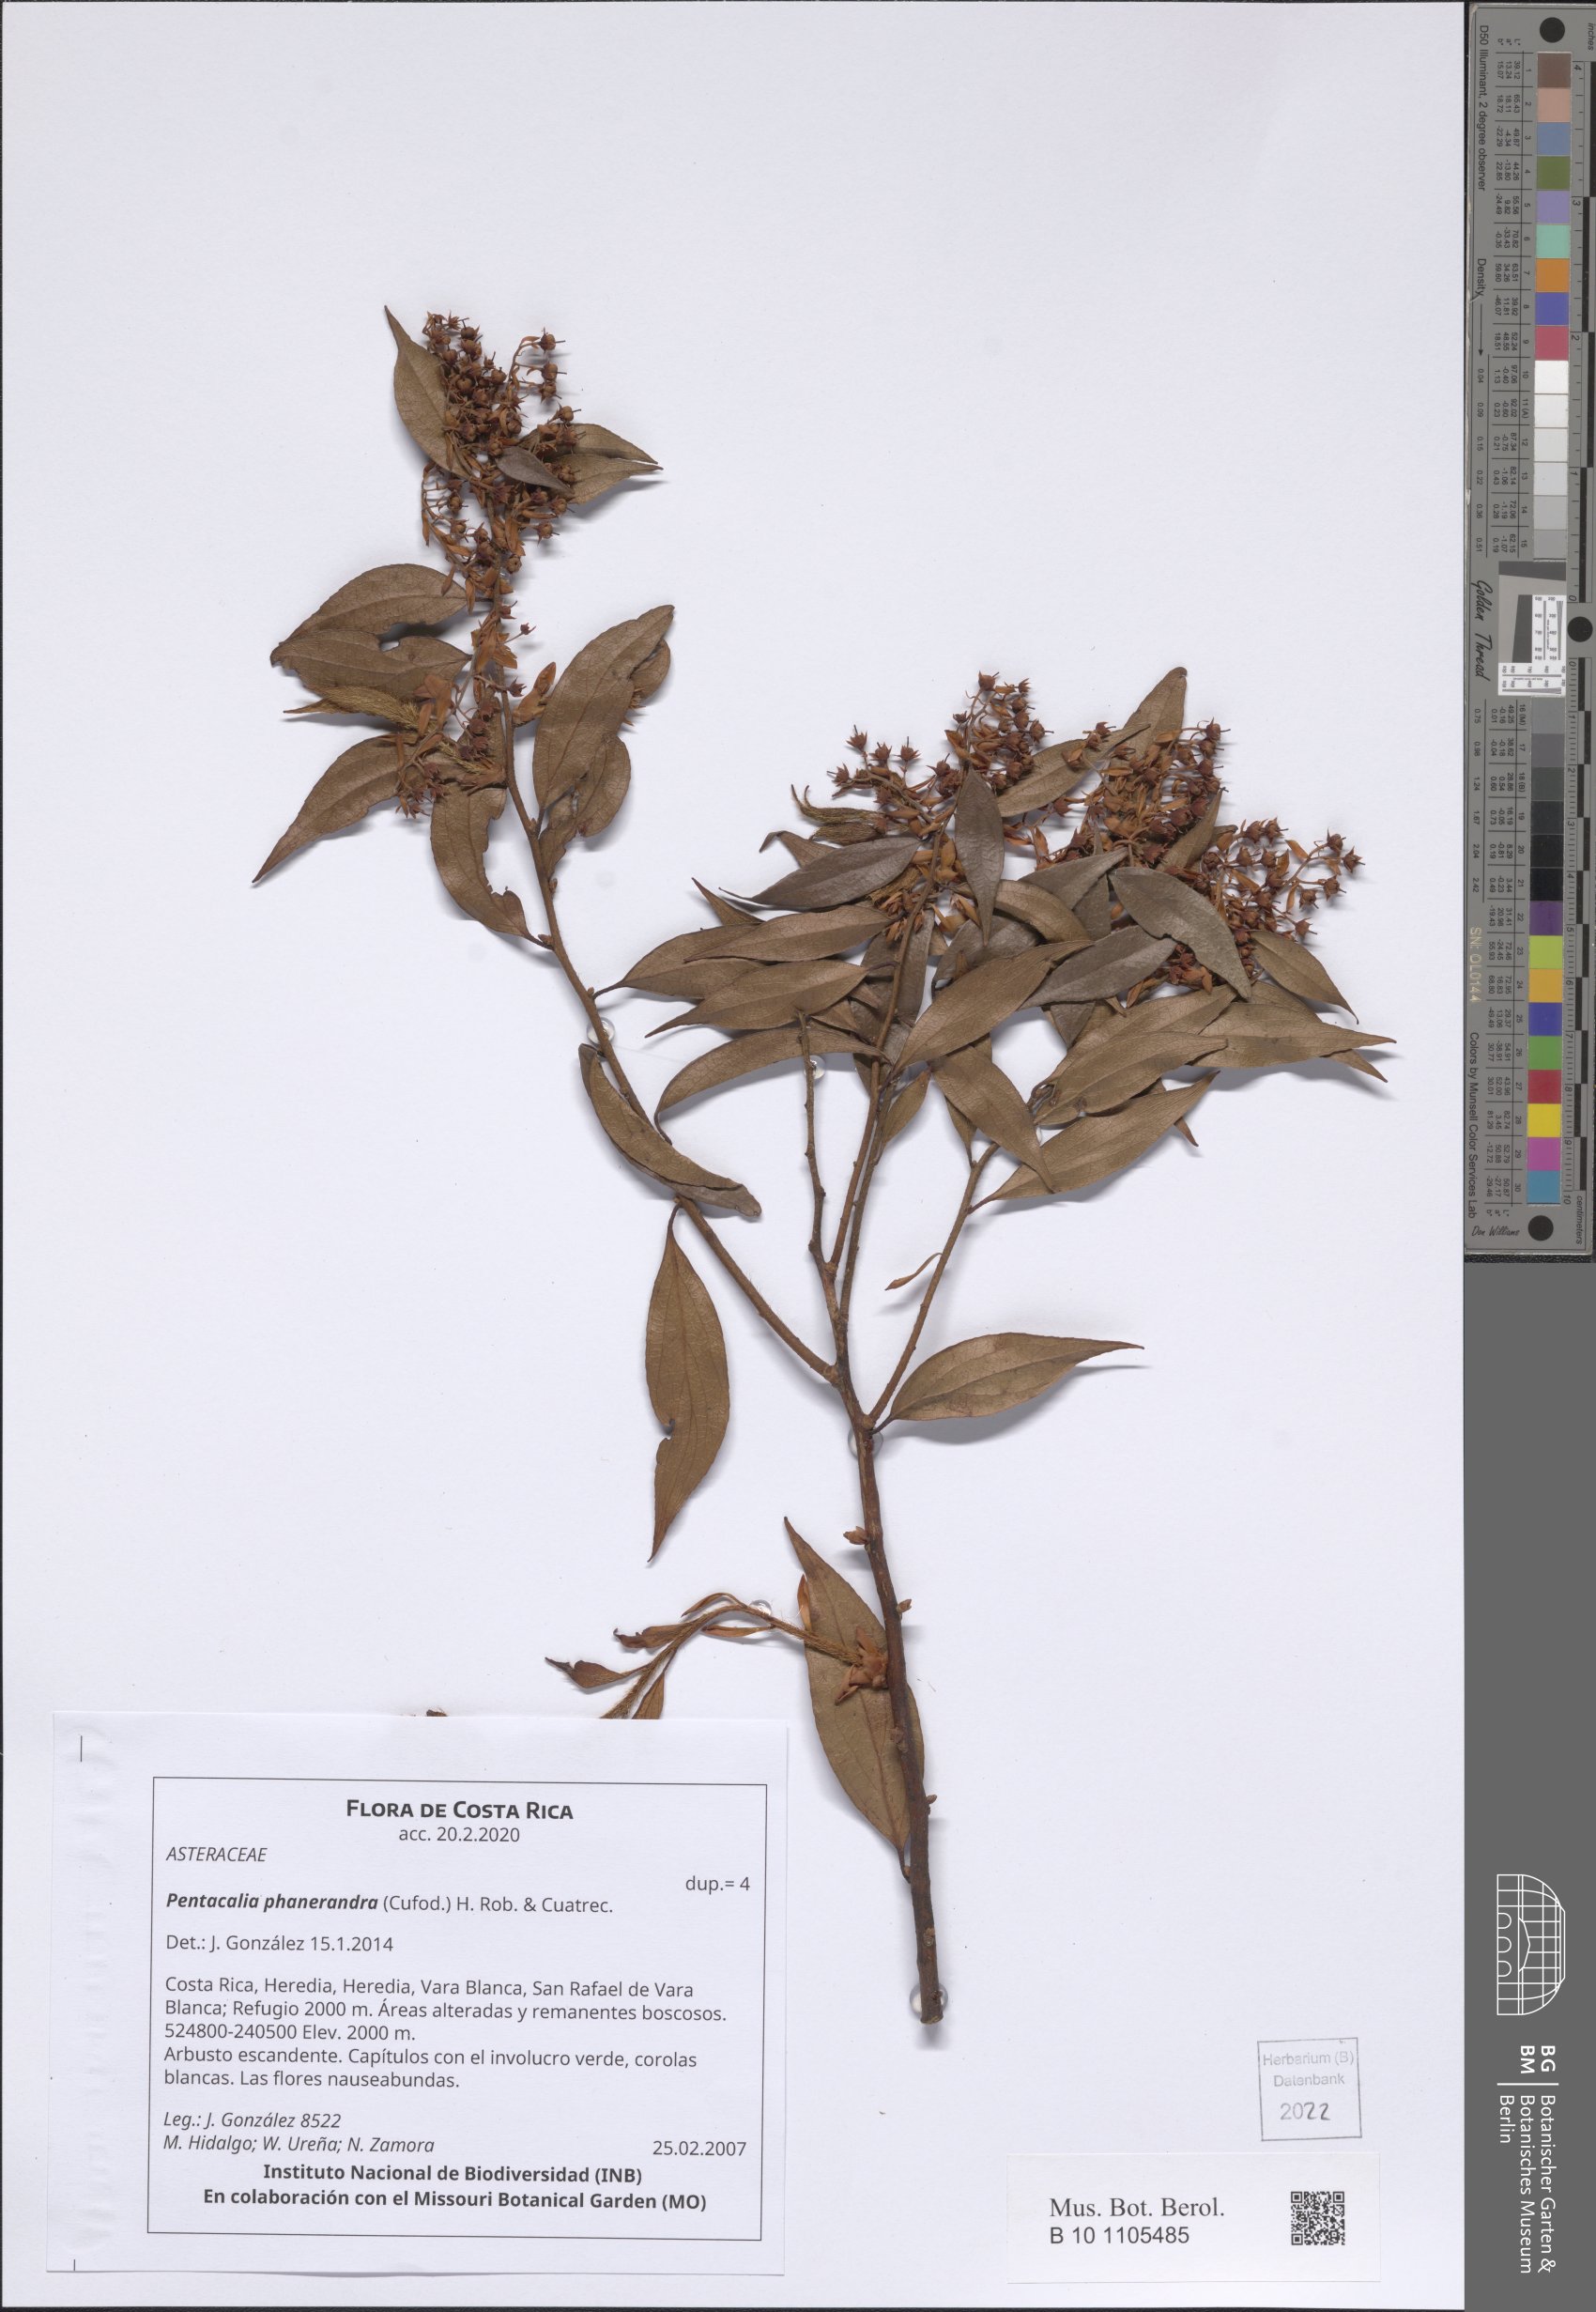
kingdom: Plantae
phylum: Tracheophyta
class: Magnoliopsida
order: Myrtales
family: Melastomataceae
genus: Miconia
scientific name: Miconia
